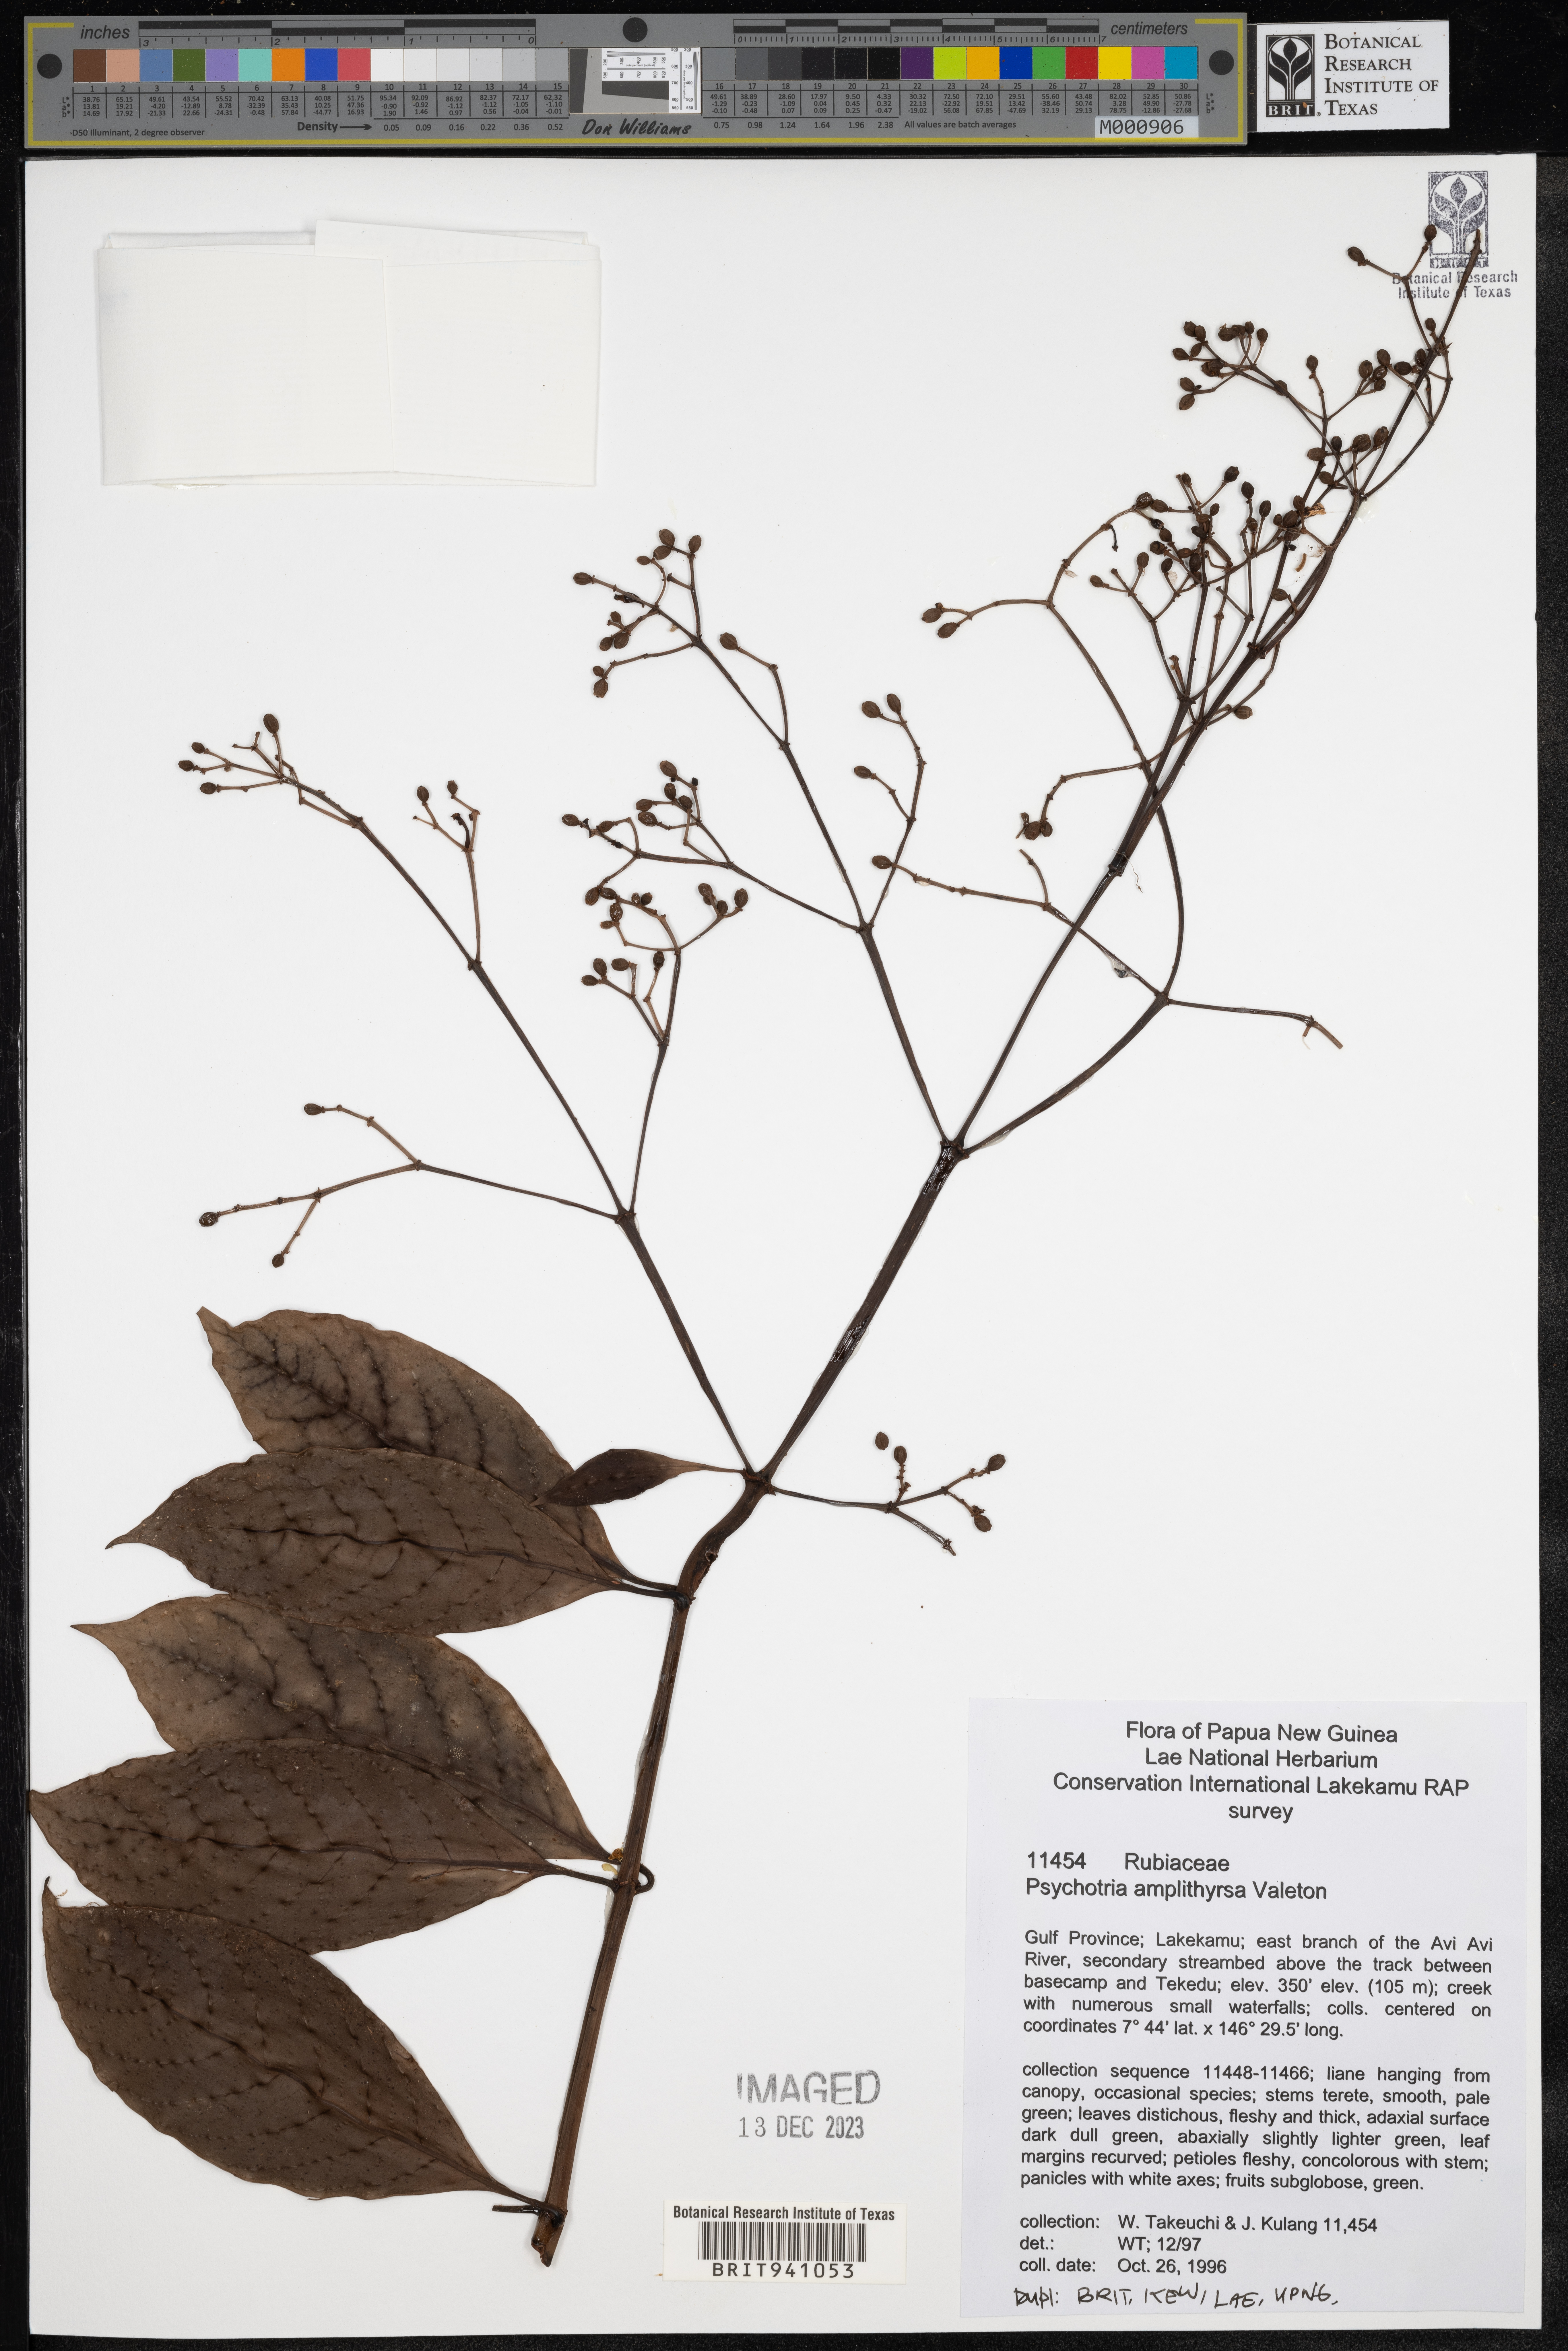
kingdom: Plantae
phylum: Tracheophyta
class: Magnoliopsida
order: Gentianales
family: Rubiaceae
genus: Psychotria
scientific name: Psychotria
